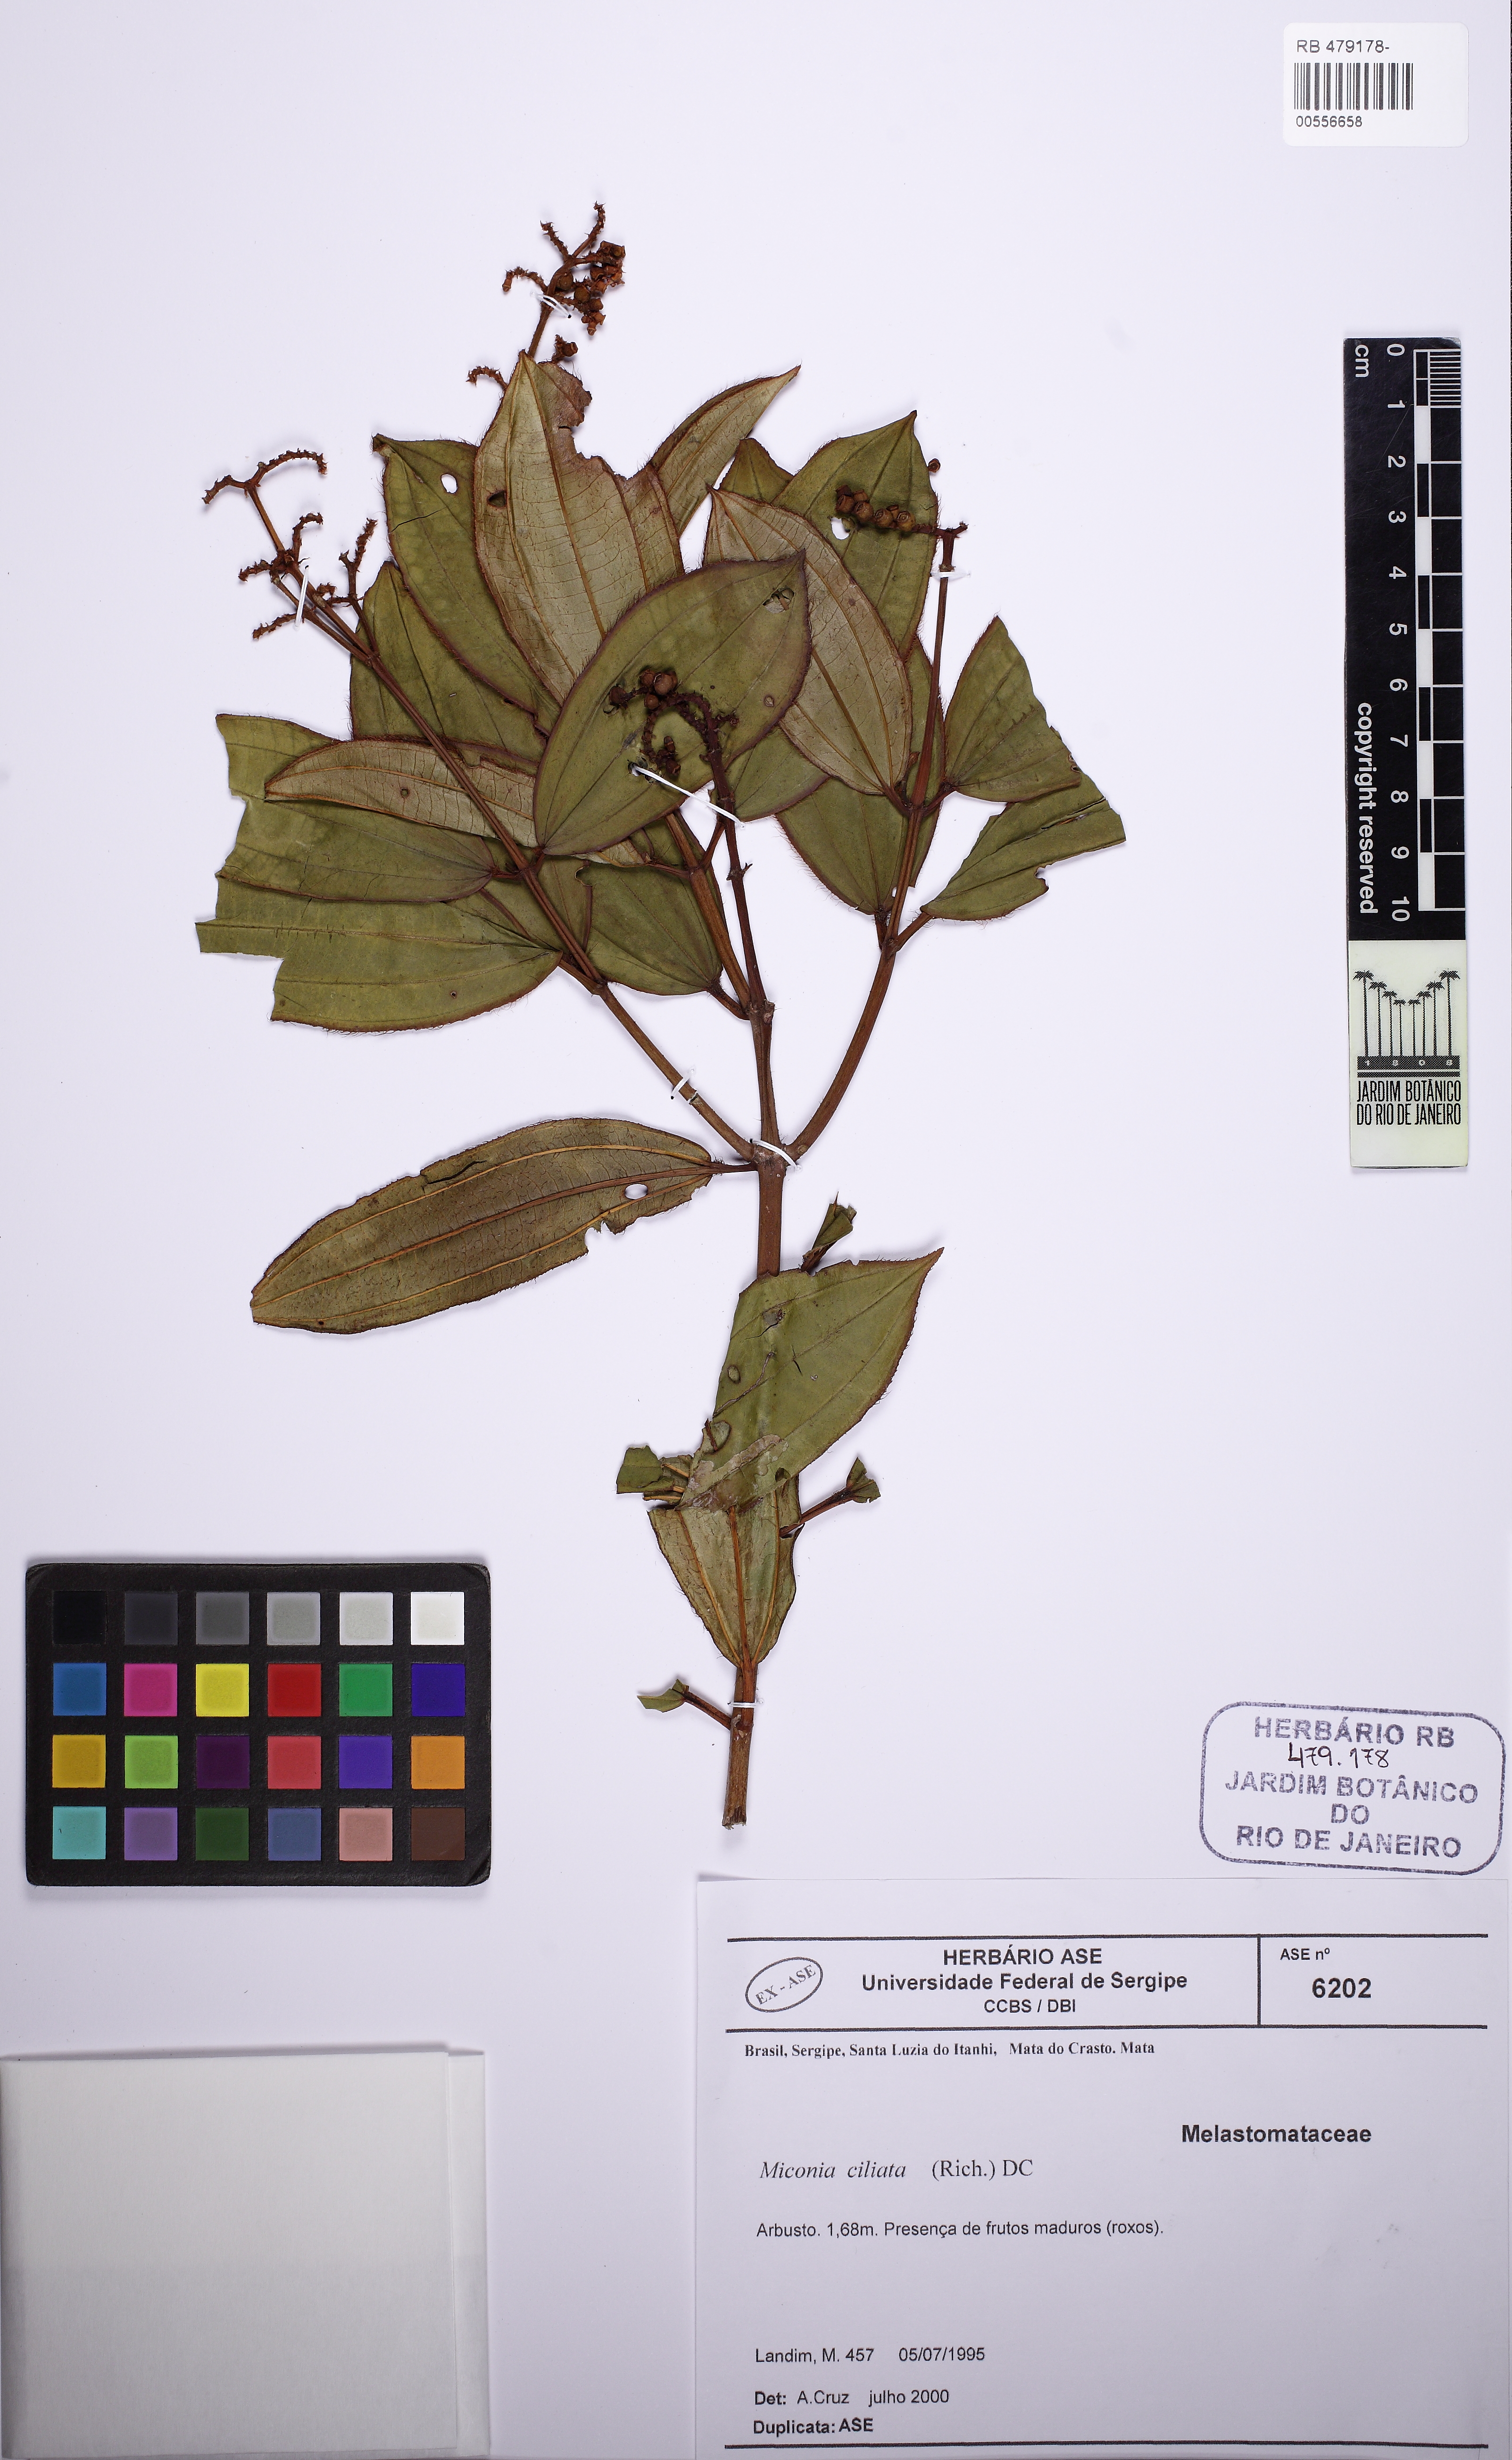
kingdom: Plantae
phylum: Tracheophyta
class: Magnoliopsida
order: Myrtales
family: Melastomataceae
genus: Miconia
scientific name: Miconia ciliata
